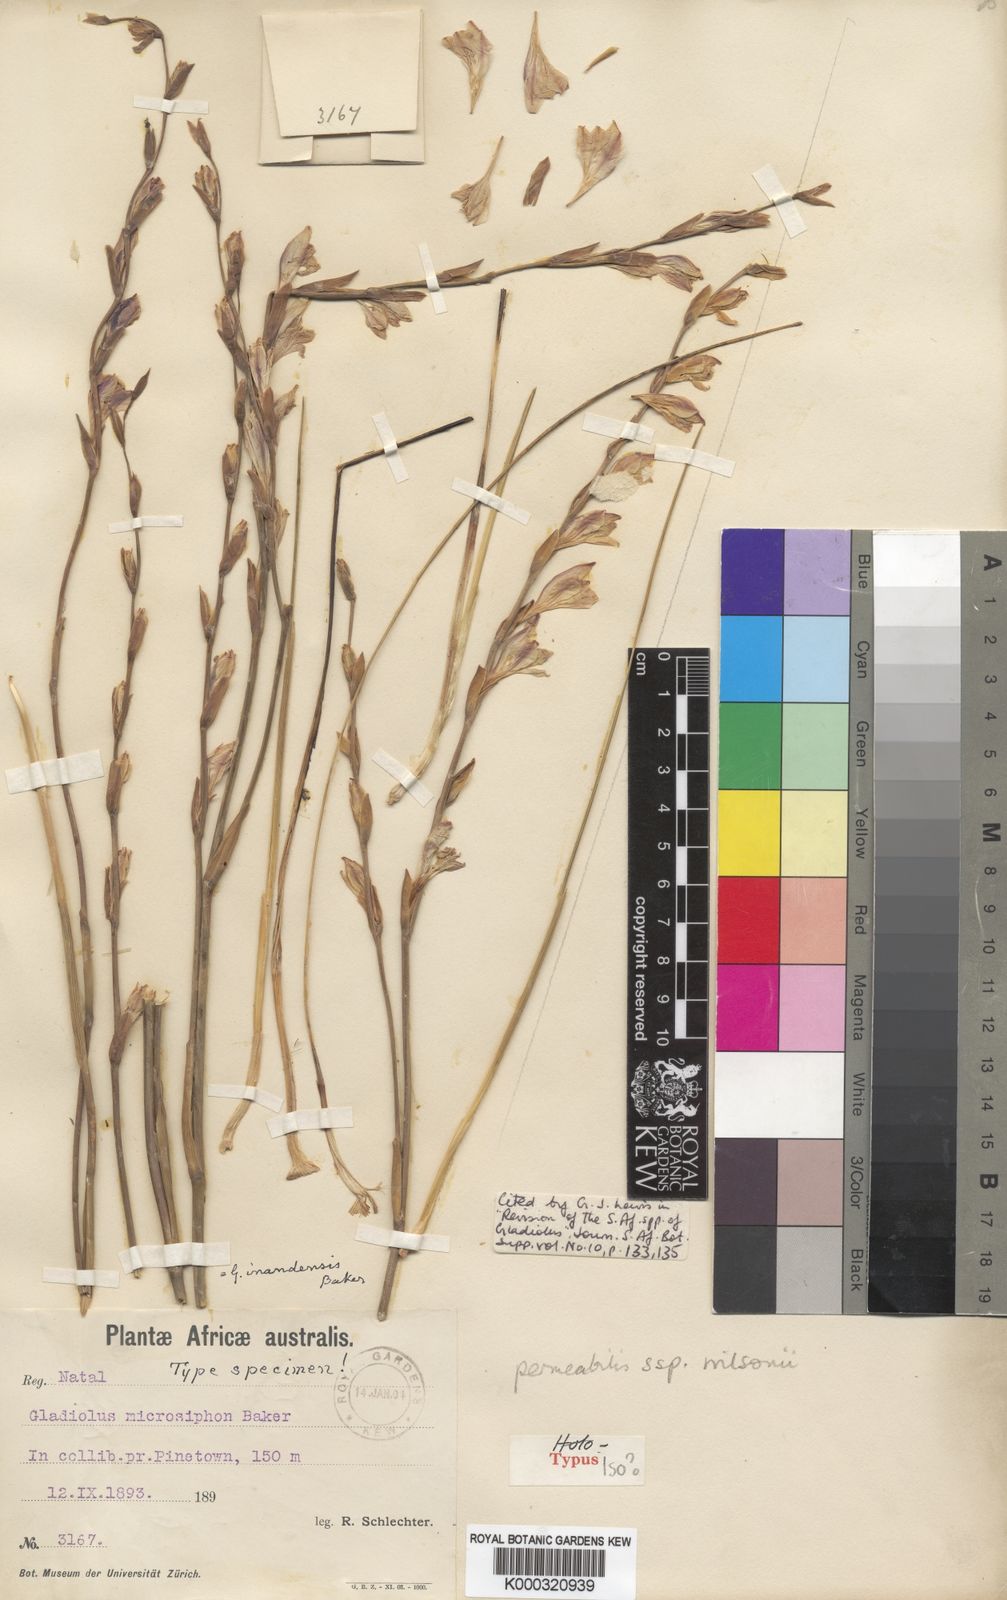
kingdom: Plantae
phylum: Tracheophyta
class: Liliopsida
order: Asparagales
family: Iridaceae
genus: Gladiolus
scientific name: Gladiolus inandensis
